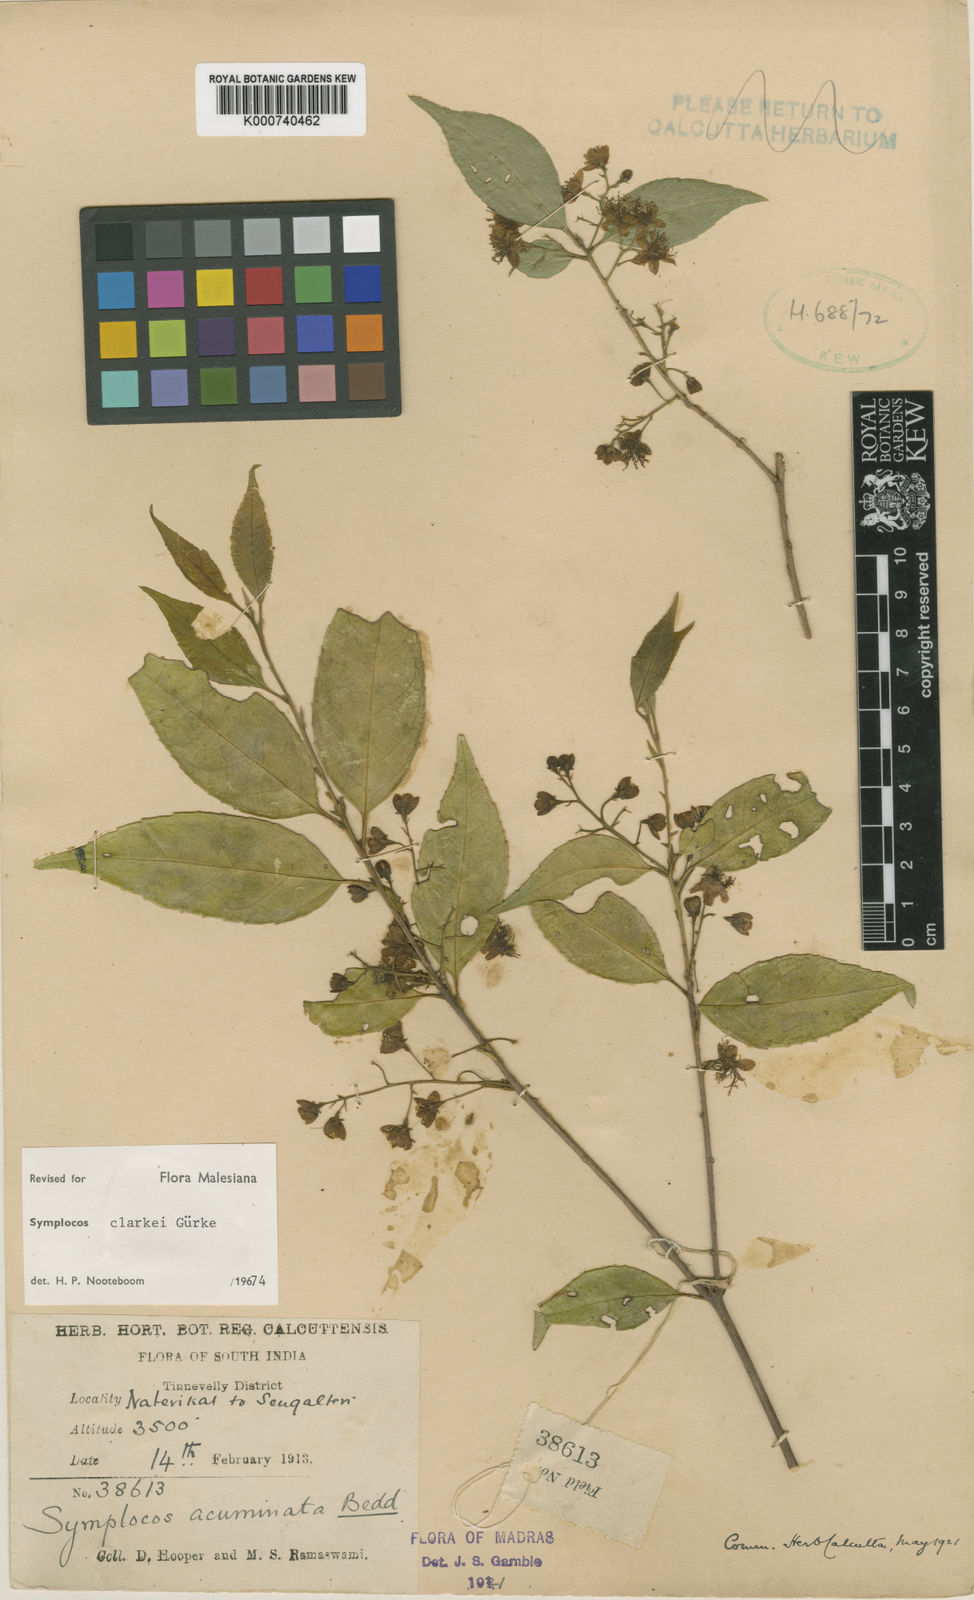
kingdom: Plantae
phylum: Tracheophyta
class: Magnoliopsida
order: Ericales
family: Symplocaceae
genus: Symplocos
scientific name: Symplocos wynadense
